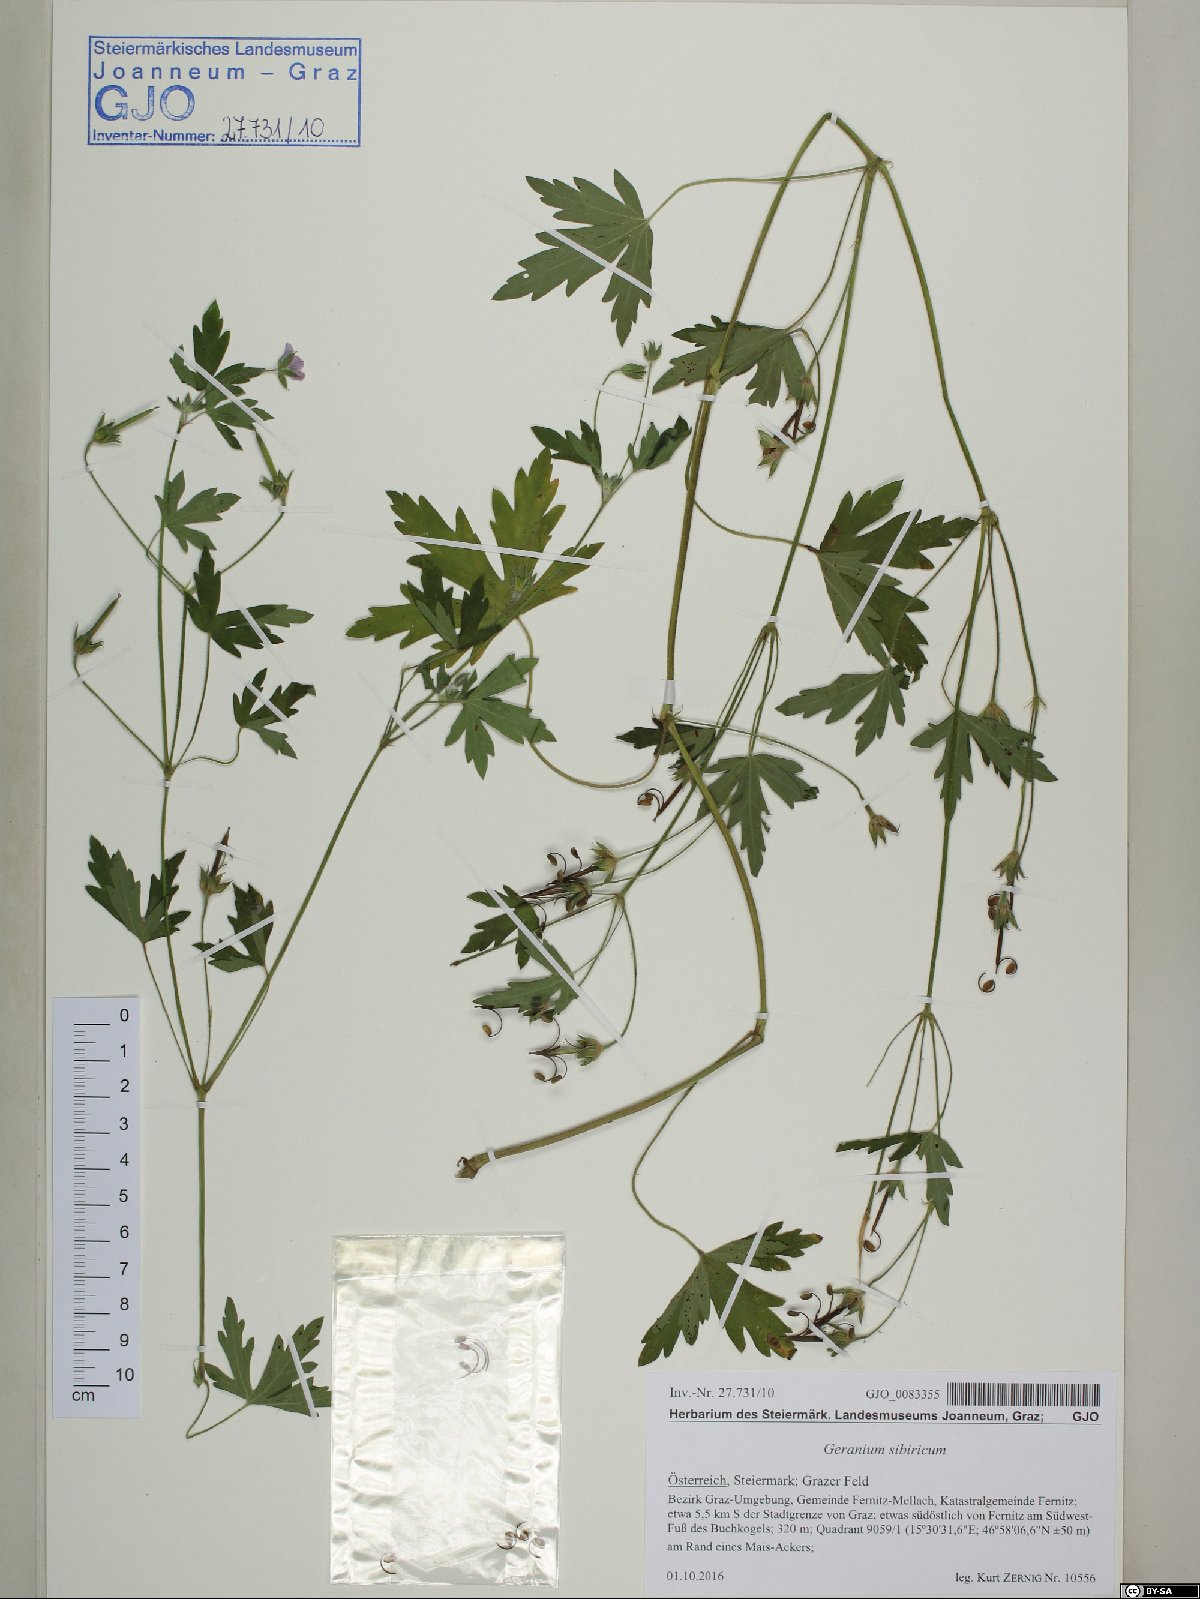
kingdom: Plantae
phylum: Tracheophyta
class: Magnoliopsida
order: Geraniales
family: Geraniaceae
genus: Geranium
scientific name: Geranium sibiricum
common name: Siberian crane's-bill
